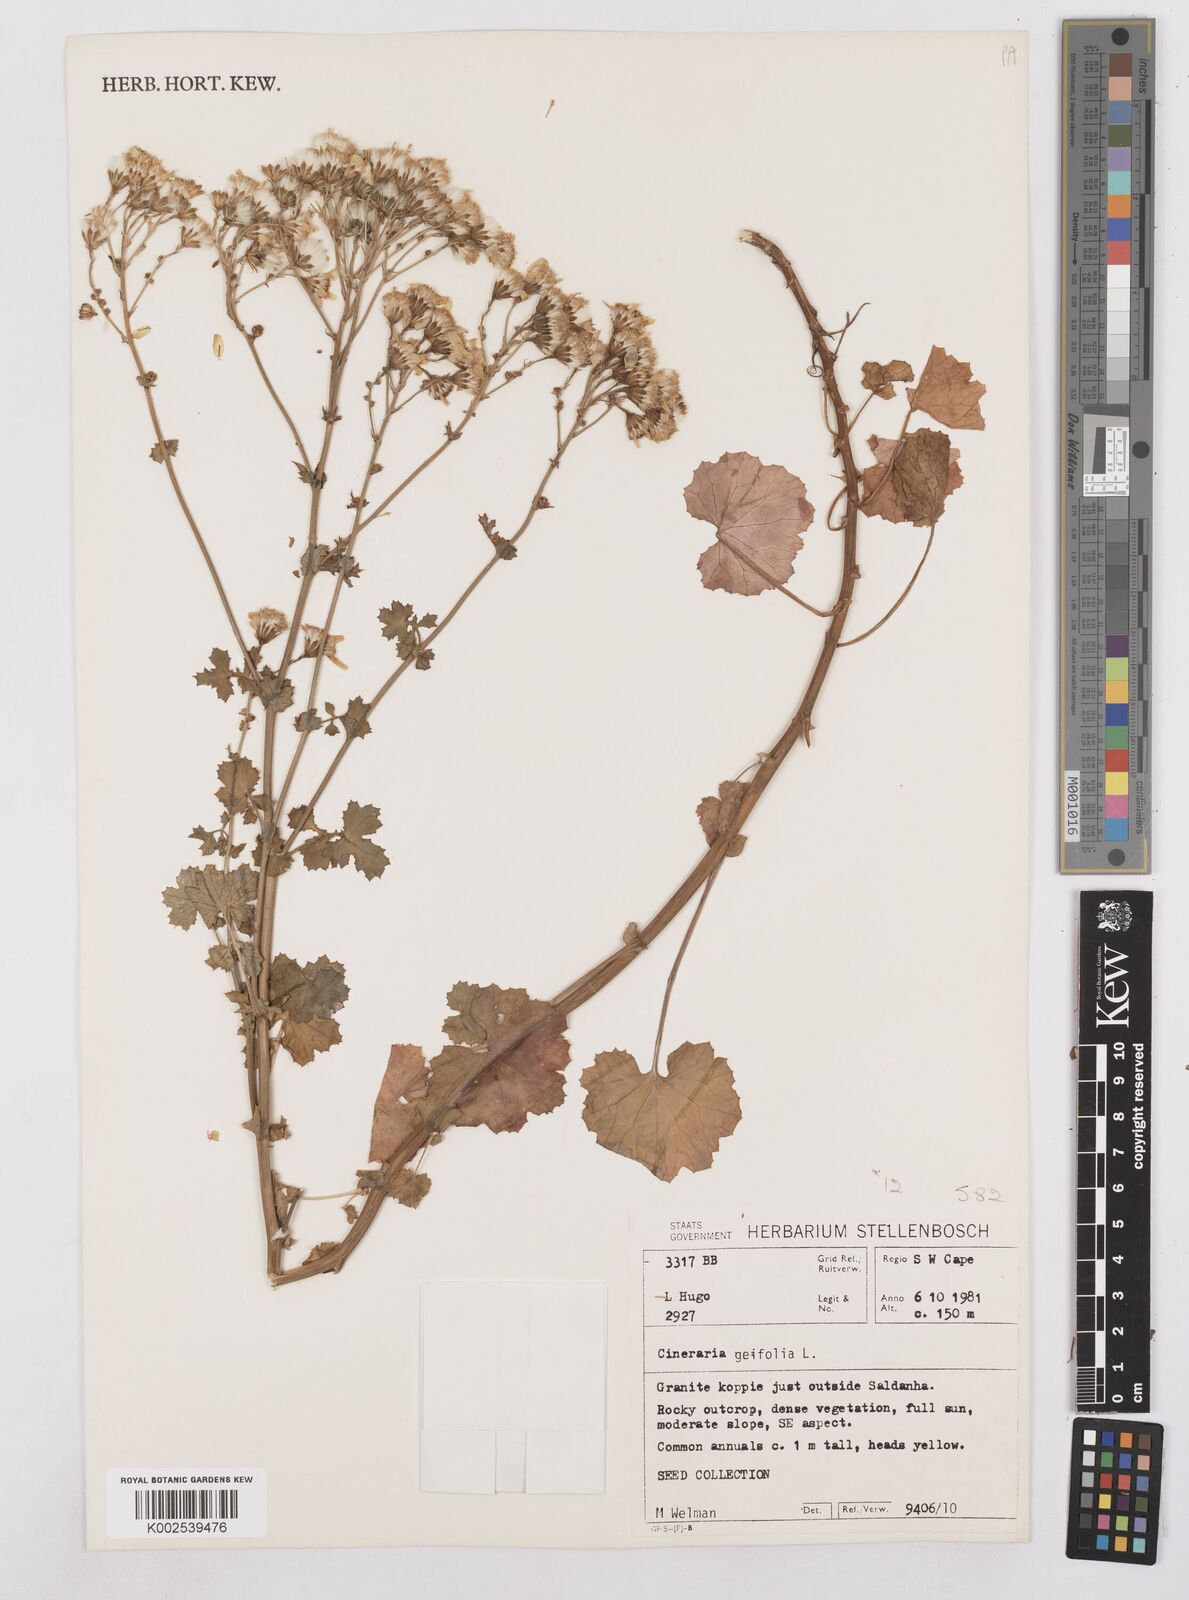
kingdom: Plantae
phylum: Tracheophyta
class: Magnoliopsida
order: Asterales
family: Asteraceae
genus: Cineraria
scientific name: Cineraria geifolia
